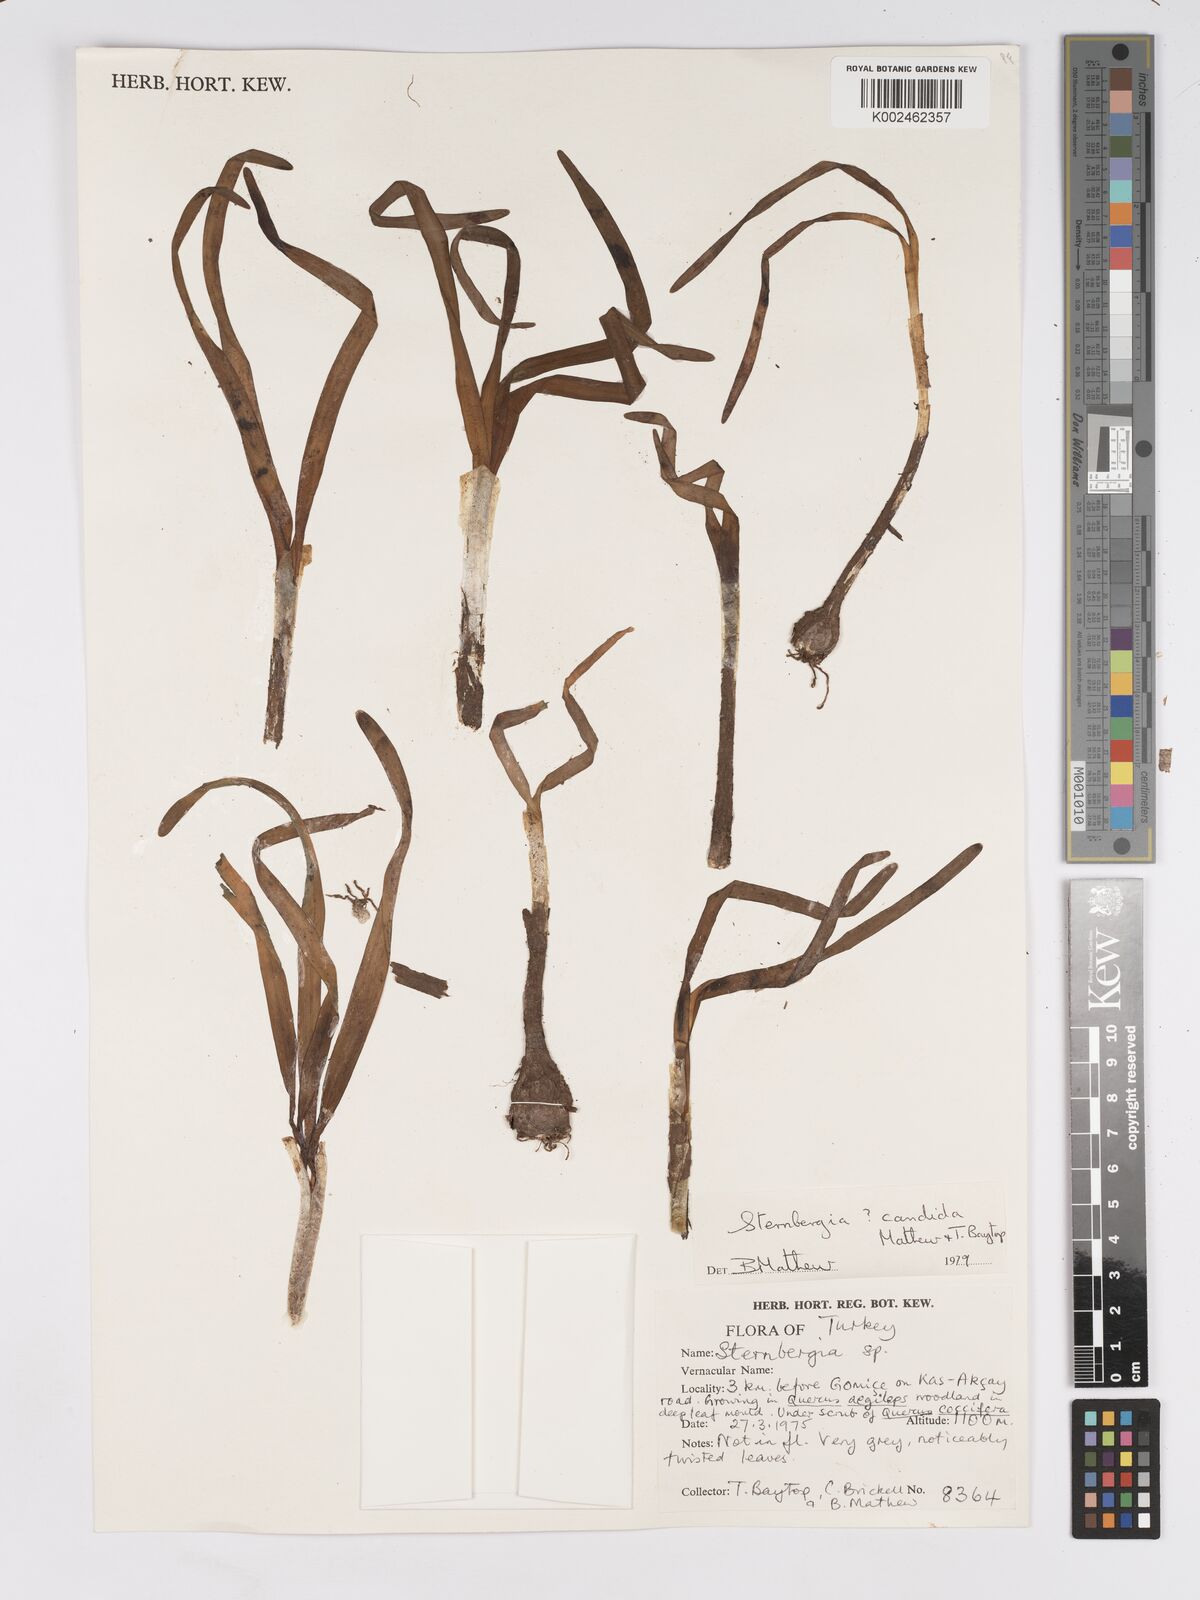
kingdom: Plantae
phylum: Tracheophyta
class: Liliopsida
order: Asparagales
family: Amaryllidaceae
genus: Sternbergia
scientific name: Sternbergia candida
